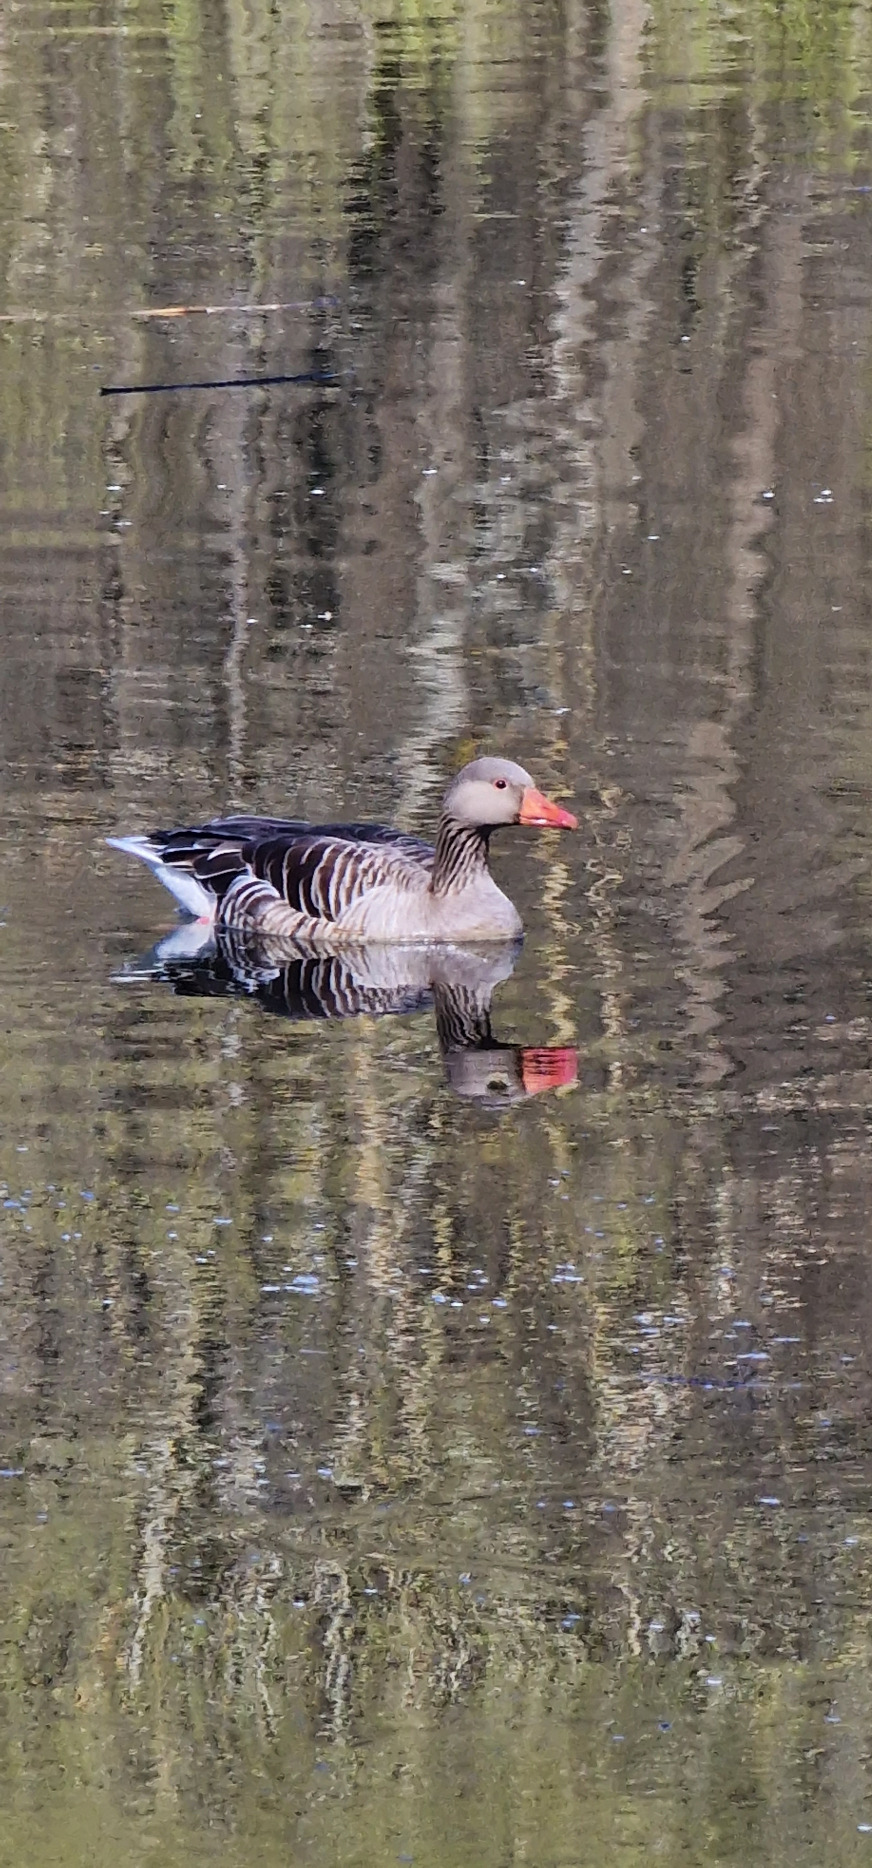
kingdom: Animalia
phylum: Chordata
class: Aves
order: Anseriformes
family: Anatidae
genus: Anser
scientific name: Anser anser
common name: Grågås
